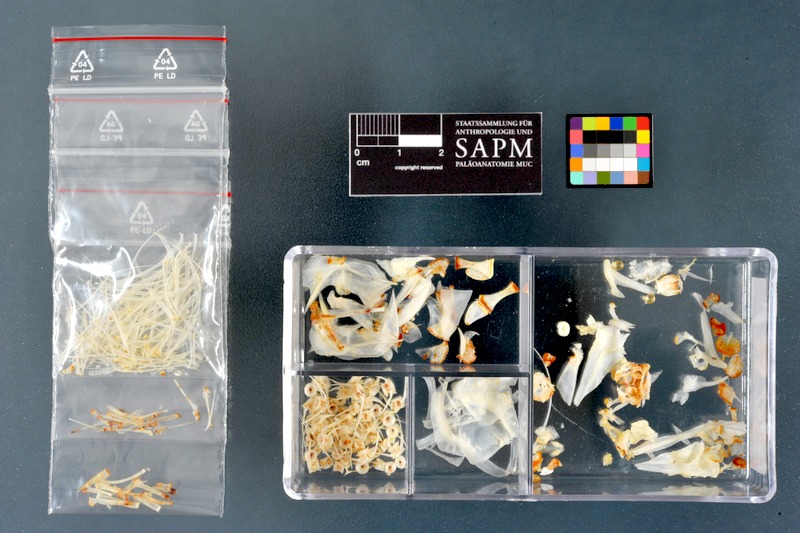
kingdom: Animalia
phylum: Chordata
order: Salmoniformes
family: Salmonidae
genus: Thymallus
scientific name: Thymallus thymallus
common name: Grayling
